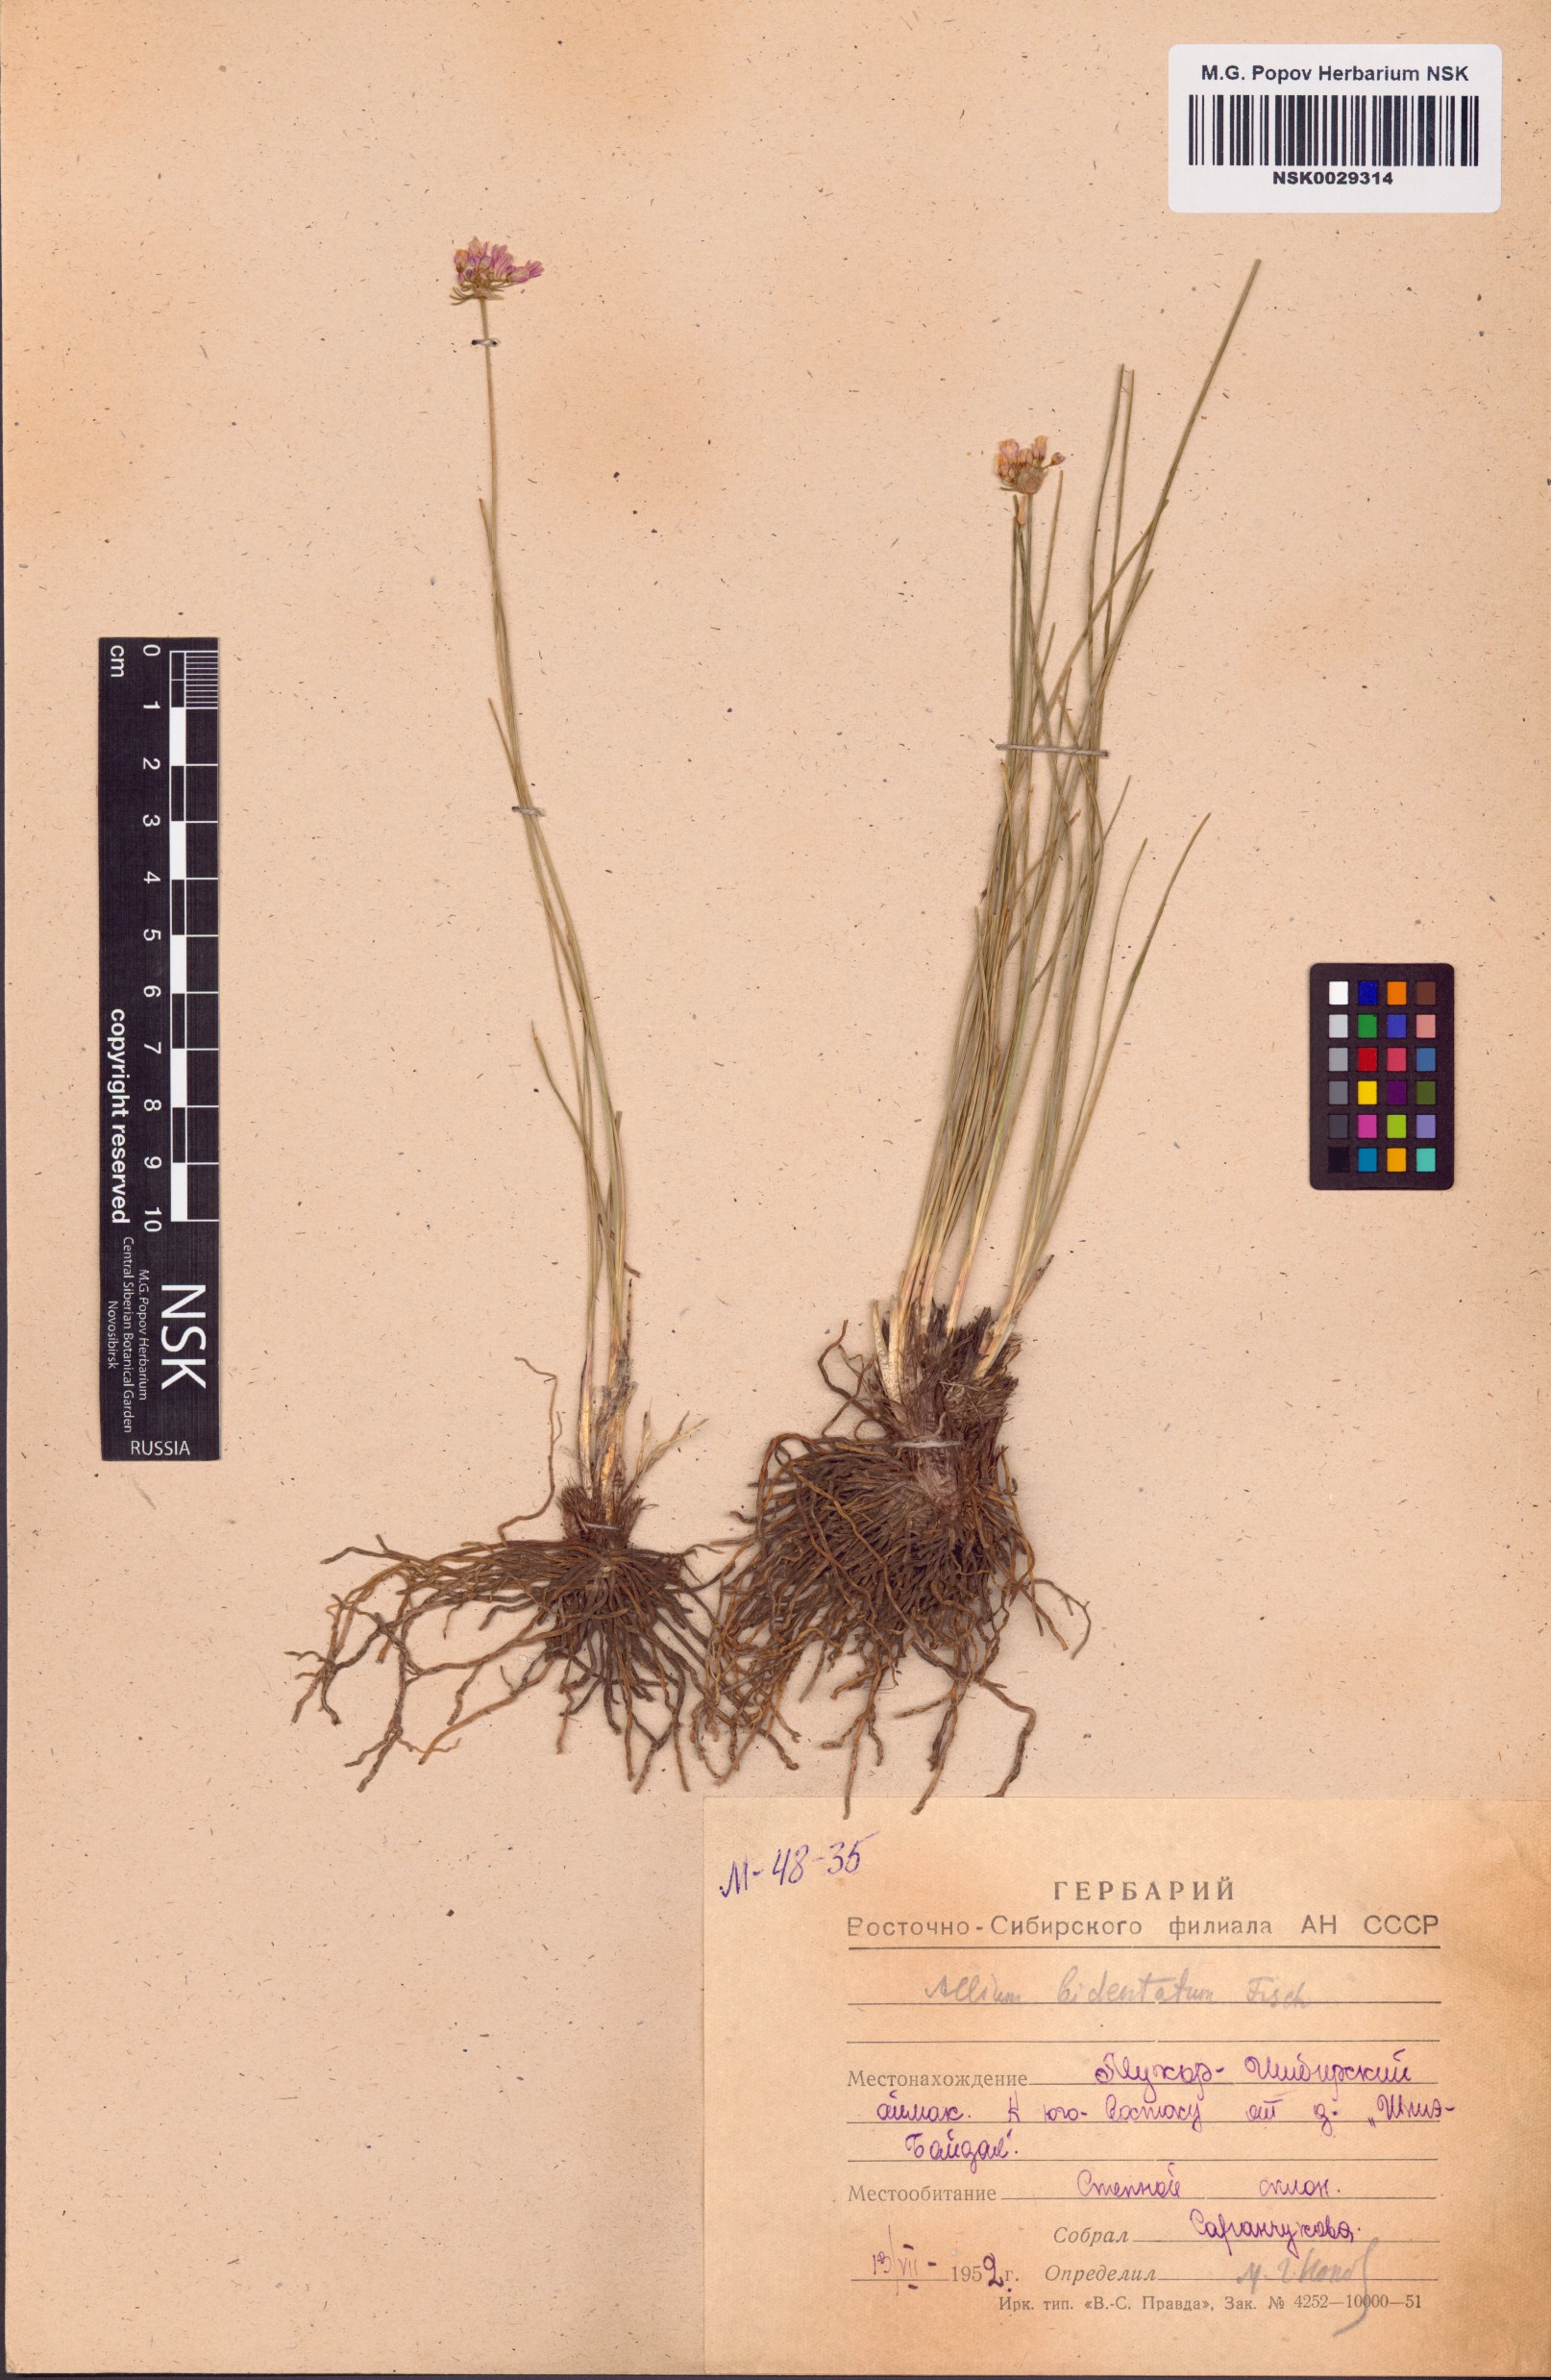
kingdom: Plantae
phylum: Tracheophyta
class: Liliopsida
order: Asparagales
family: Amaryllidaceae
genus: Allium
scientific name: Allium bidentatum
